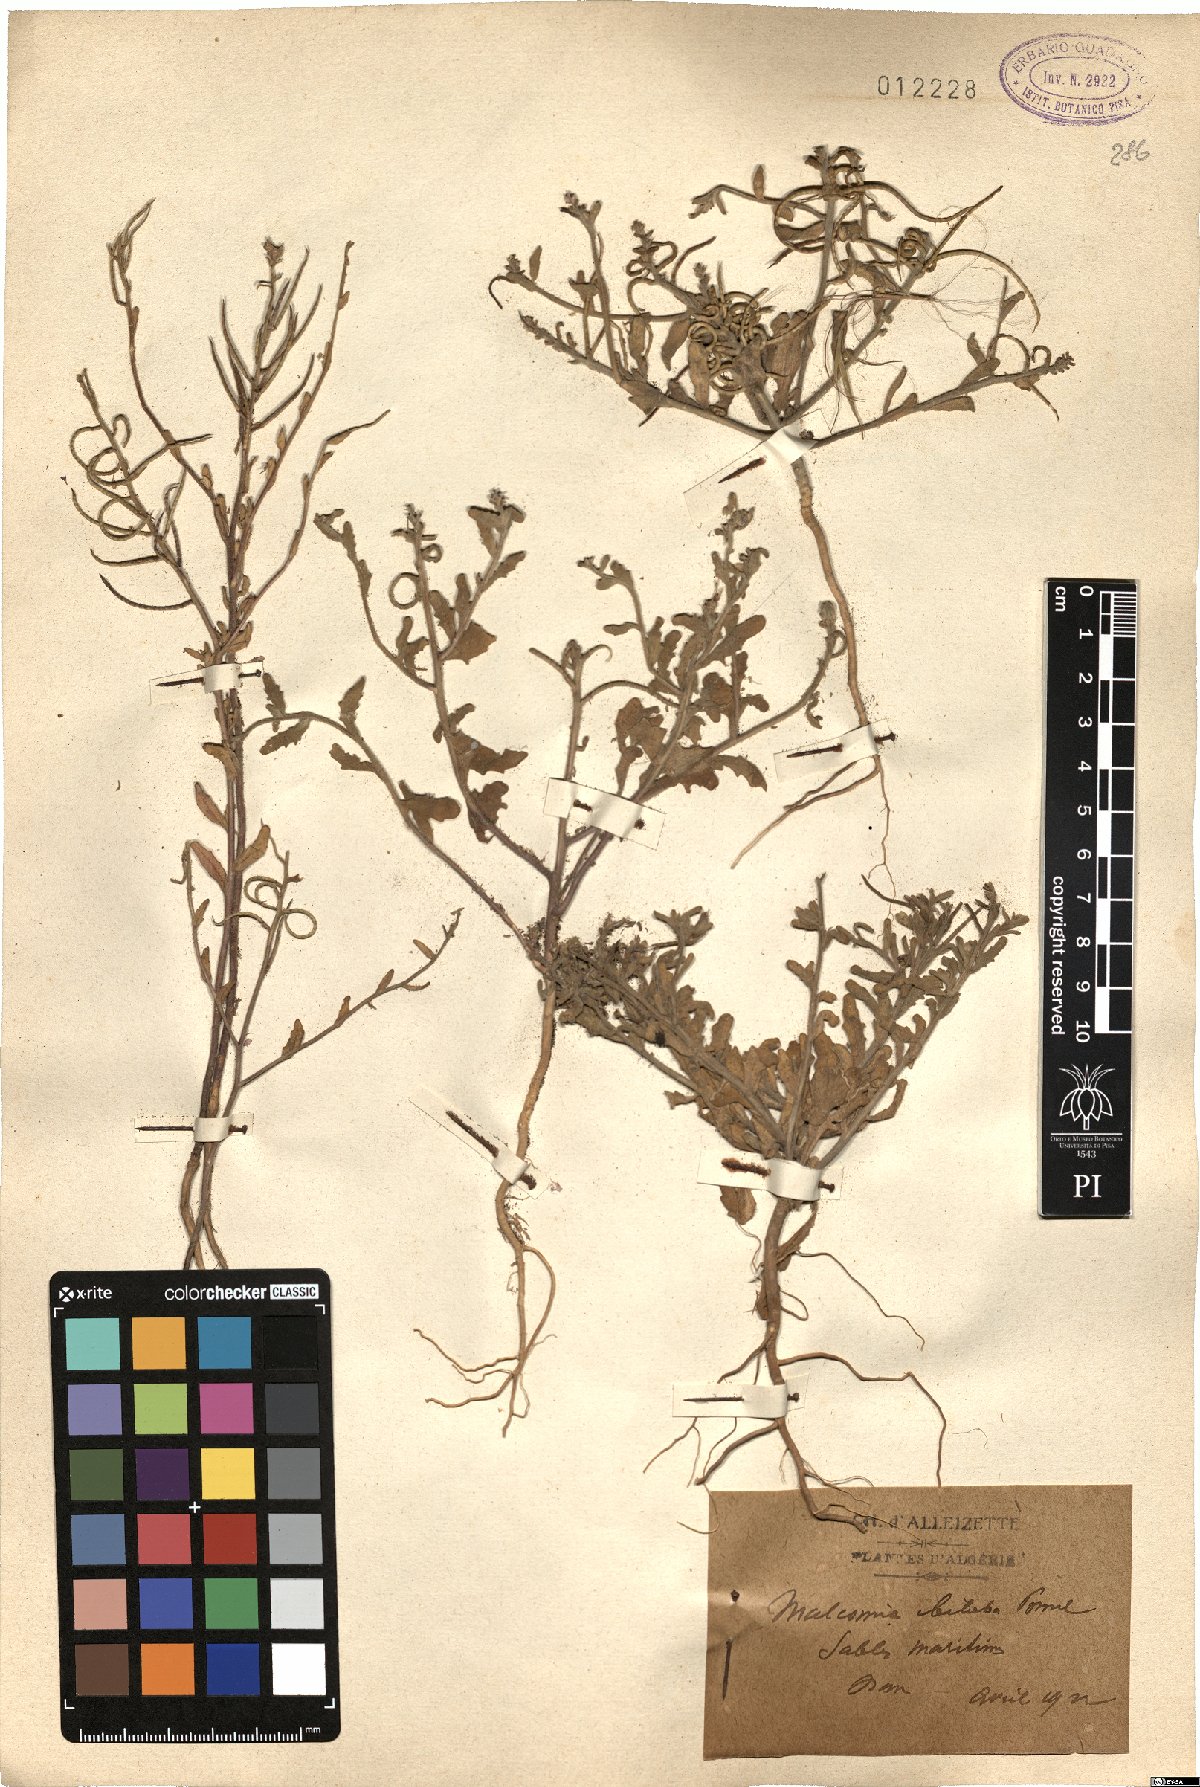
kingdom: Plantae
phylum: Tracheophyta
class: Magnoliopsida
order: Brassicales
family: Brassicaceae
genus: Marcuskochia
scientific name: Marcuskochia arenaria
